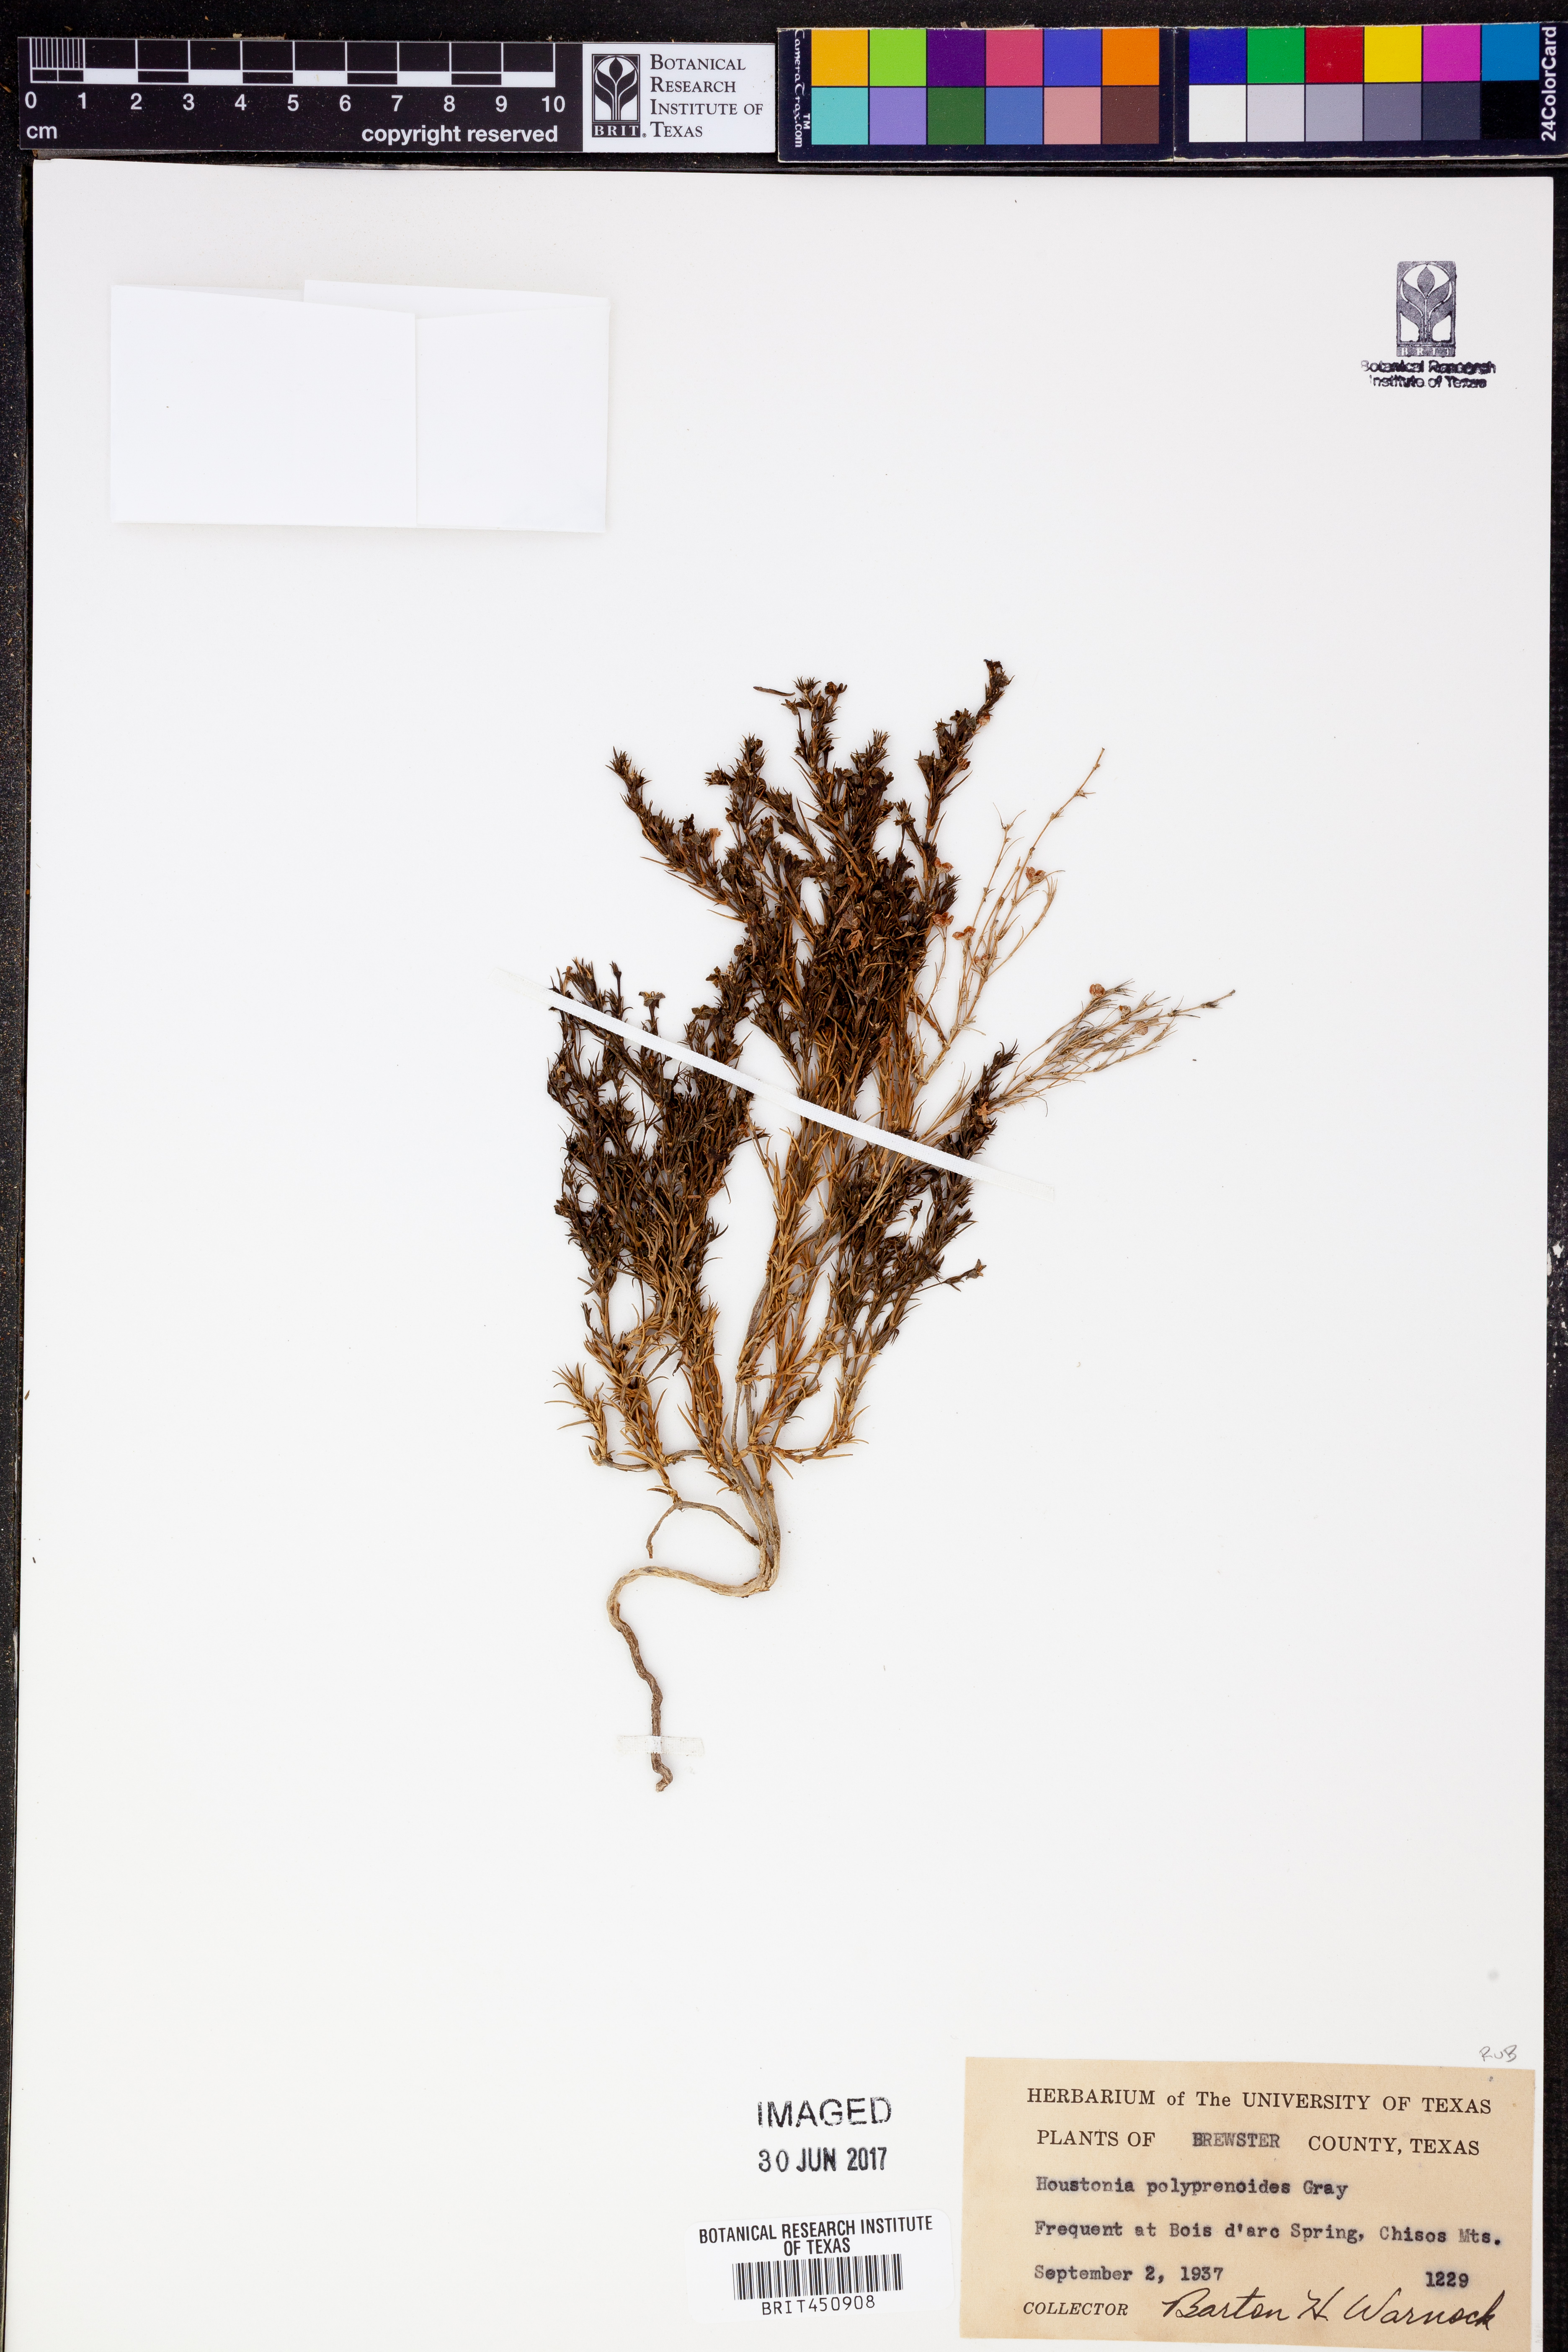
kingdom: Plantae
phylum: Tracheophyta
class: Magnoliopsida
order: Gentianales
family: Rubiaceae
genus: Houstonia
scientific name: Houstonia acerosa
